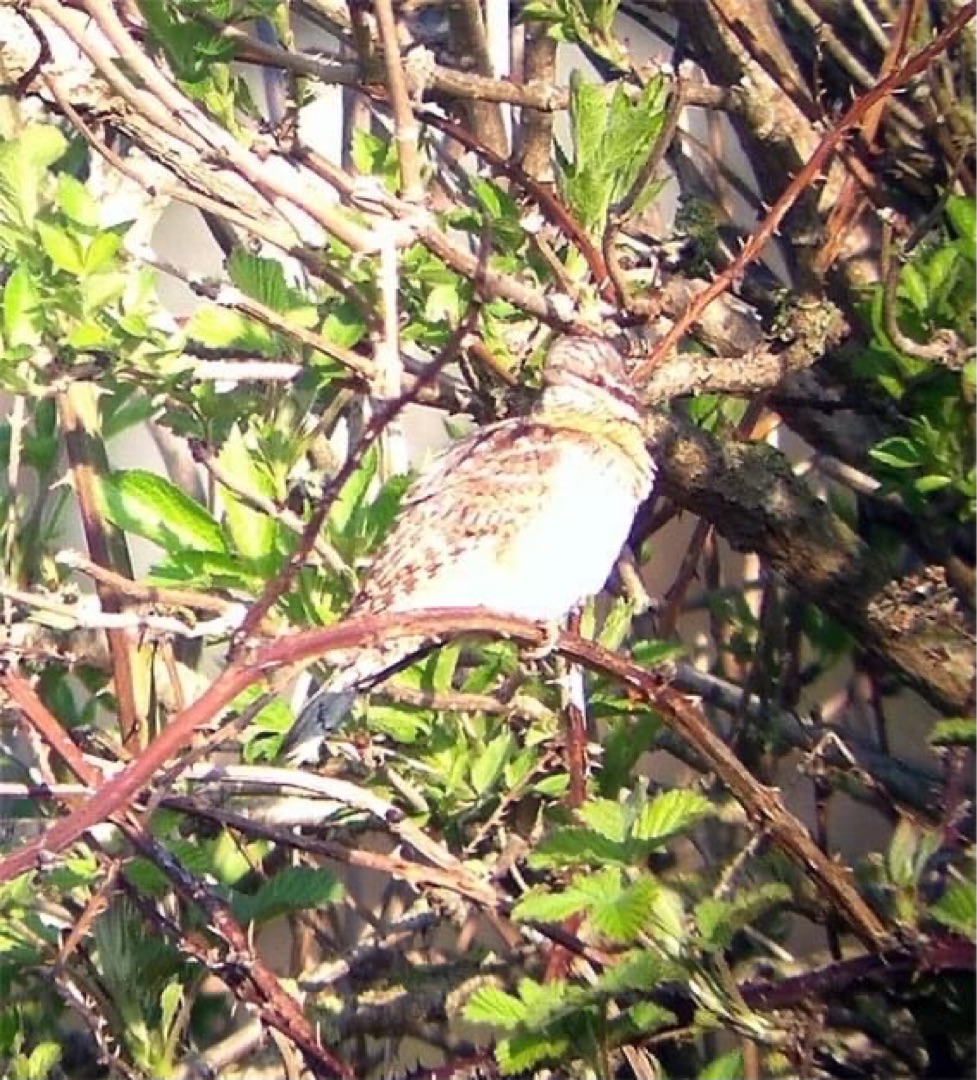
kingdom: Animalia
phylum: Chordata
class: Aves
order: Piciformes
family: Picidae
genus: Jynx
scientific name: Jynx torquilla
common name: Vendehals
